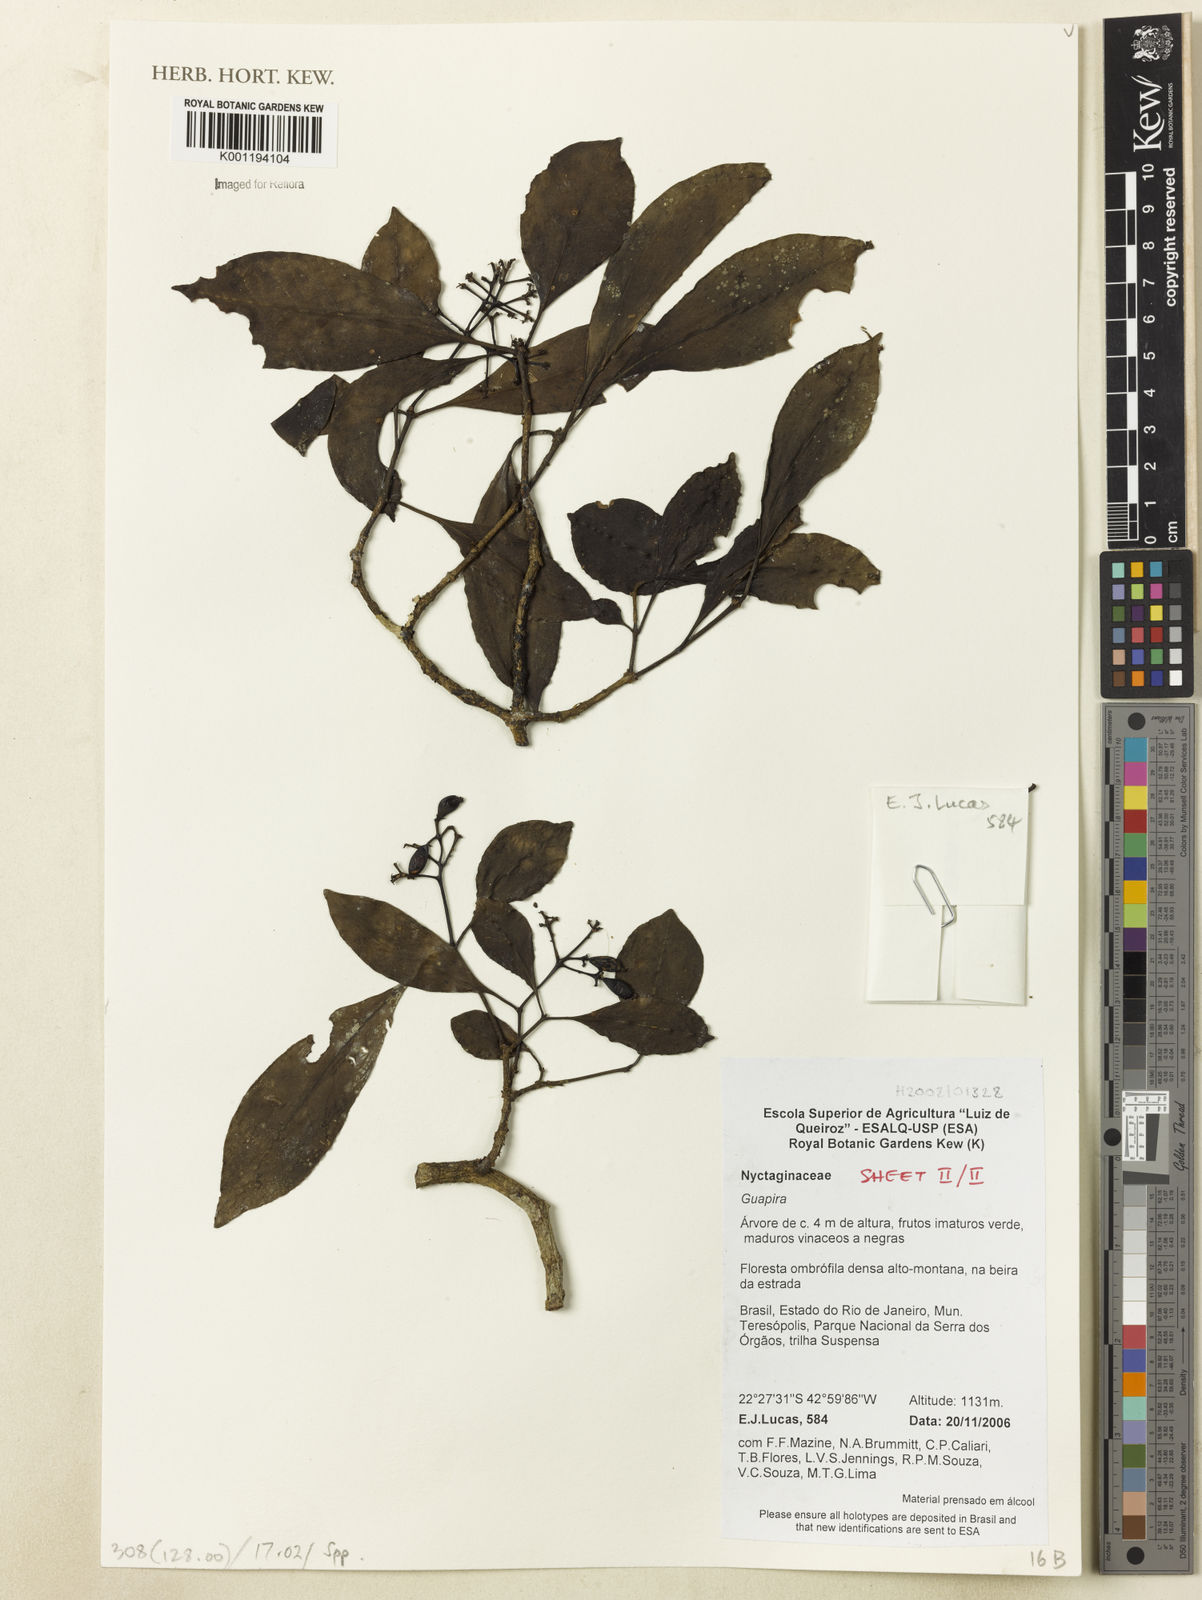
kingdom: Plantae
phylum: Tracheophyta
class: Magnoliopsida
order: Caryophyllales
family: Nyctaginaceae
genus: Guapira
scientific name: Guapira
